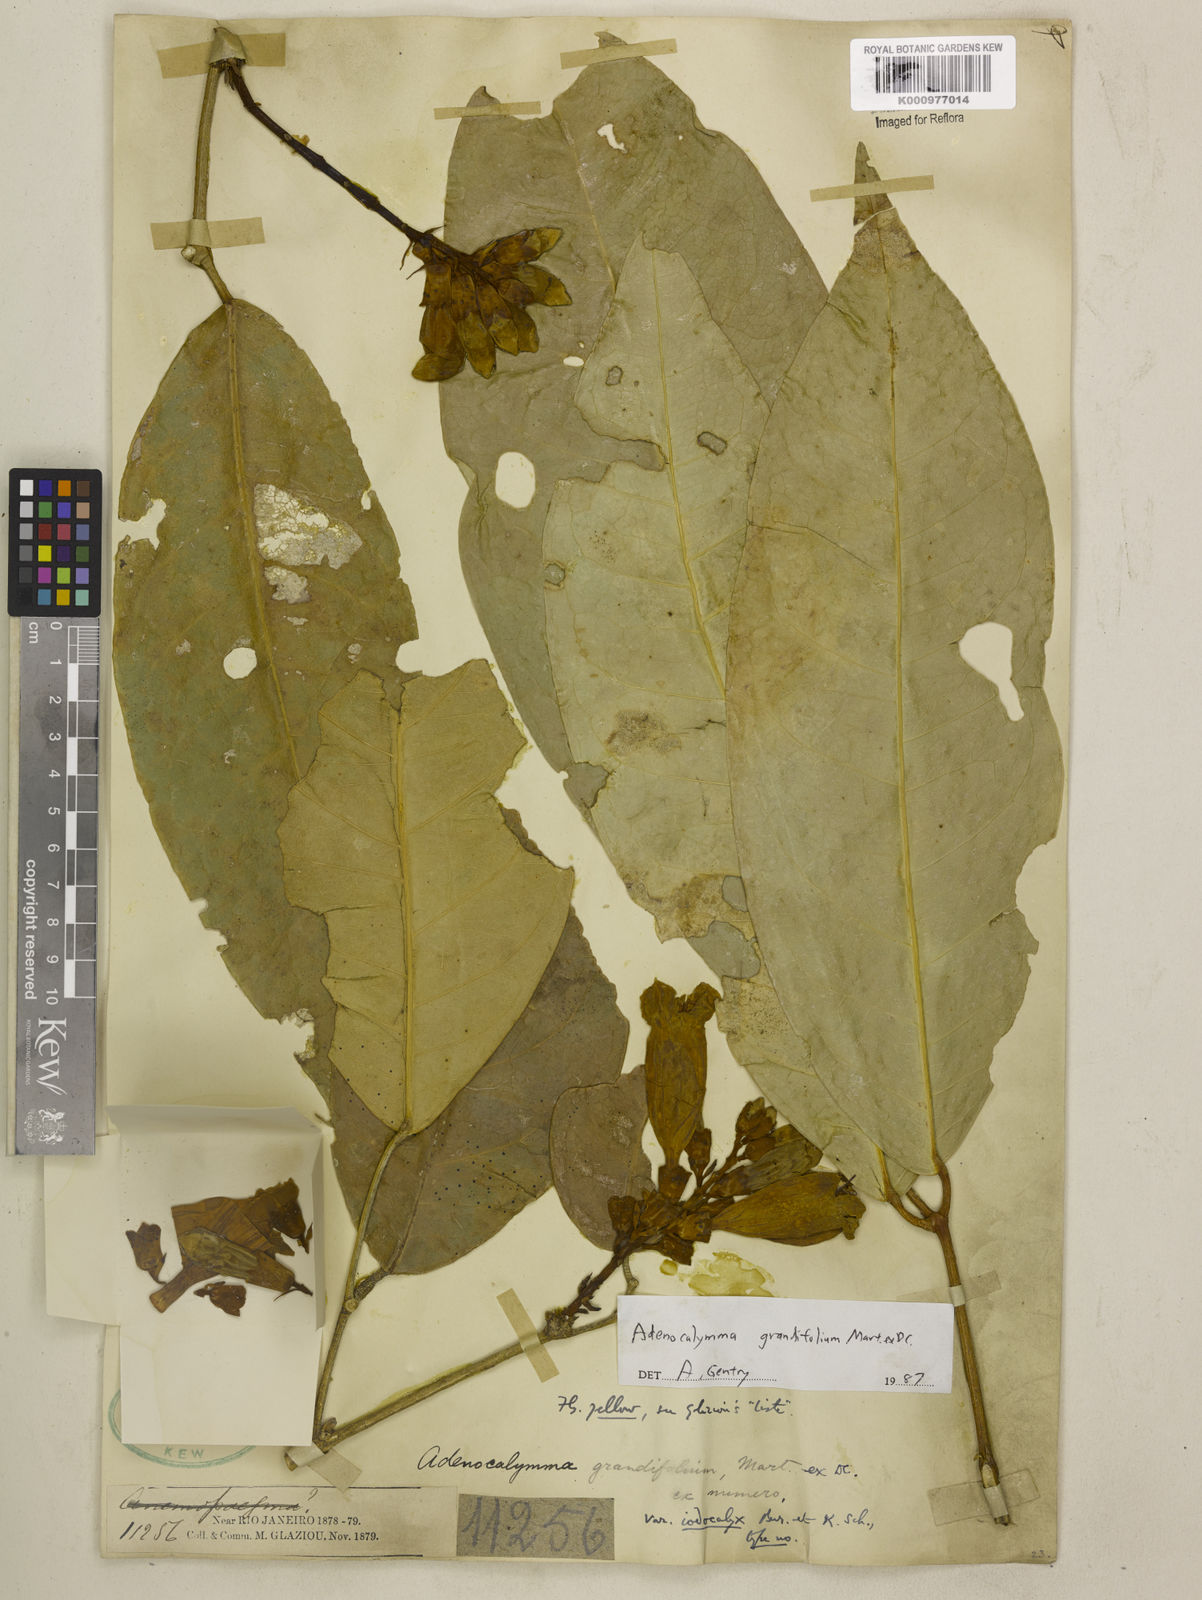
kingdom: Plantae
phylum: Tracheophyta
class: Magnoliopsida
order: Lamiales
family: Bignoniaceae
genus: Adenocalymma
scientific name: Adenocalymma ternatum
